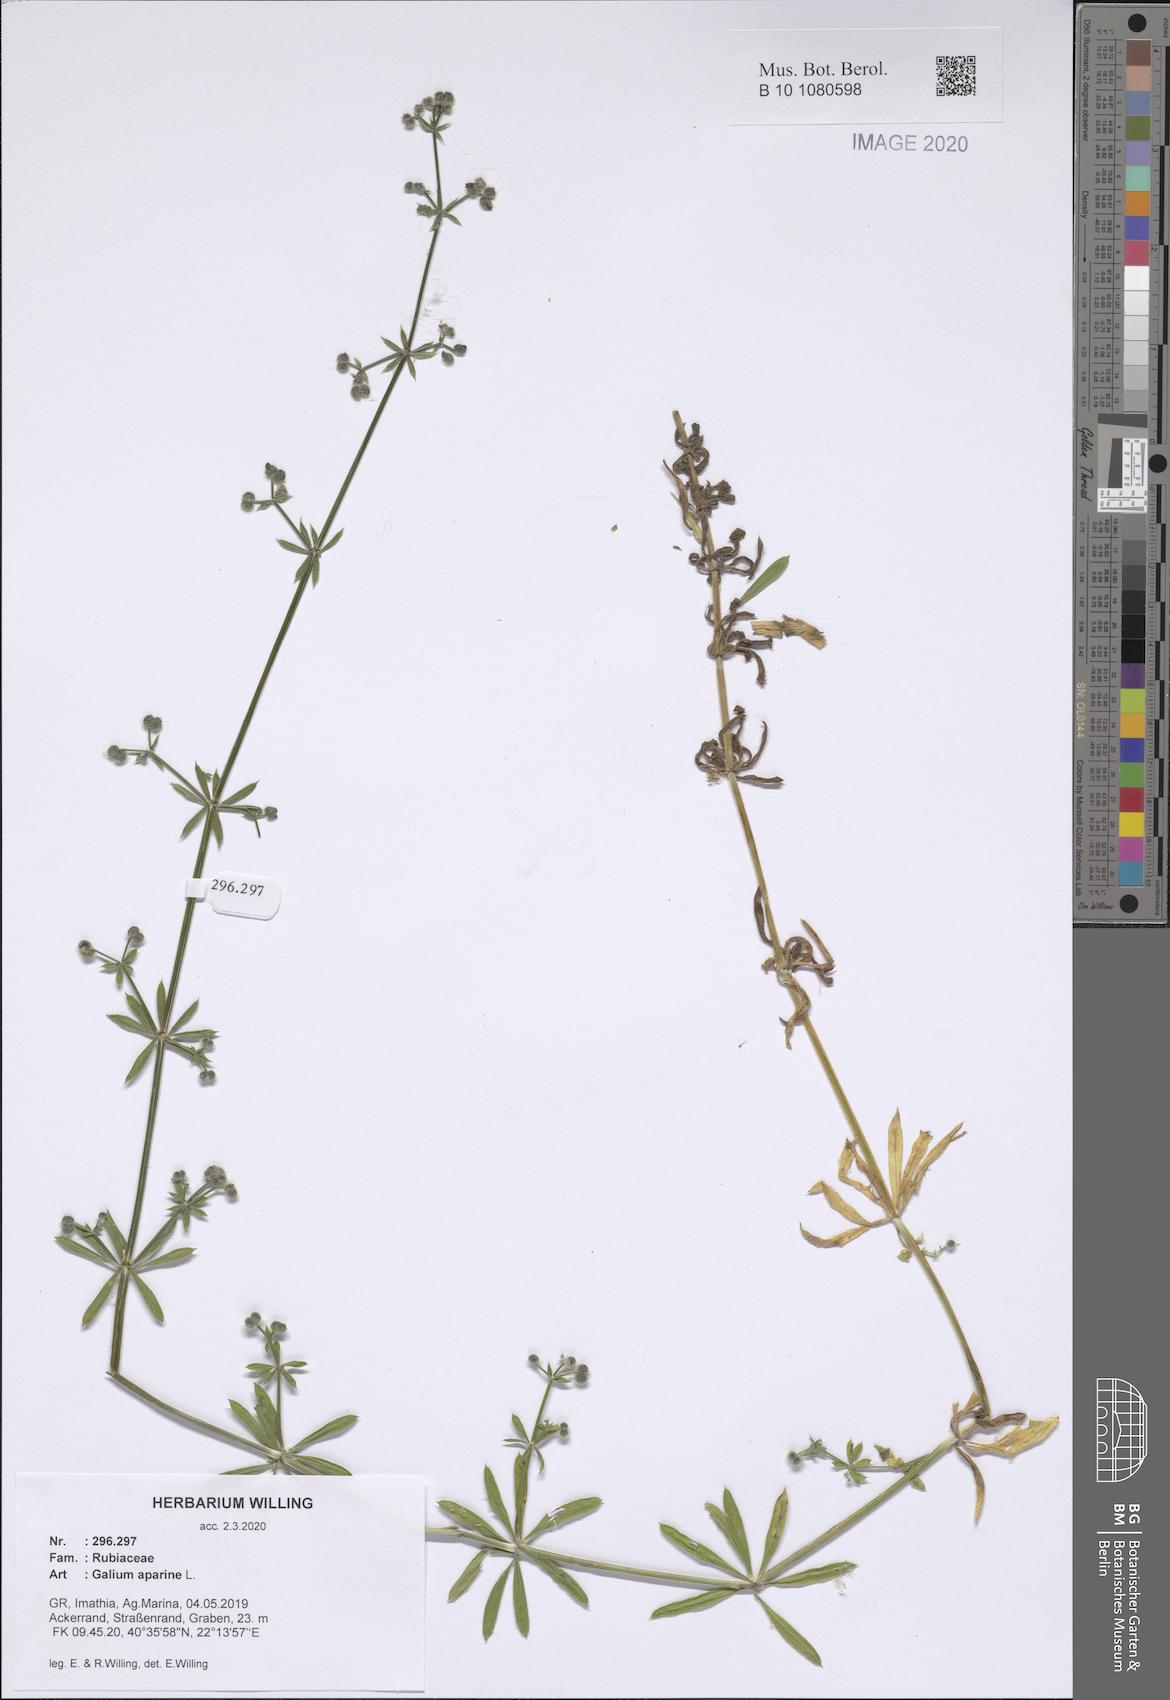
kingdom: Plantae
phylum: Tracheophyta
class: Magnoliopsida
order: Gentianales
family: Rubiaceae
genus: Galium
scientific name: Galium aparine
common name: Cleavers
